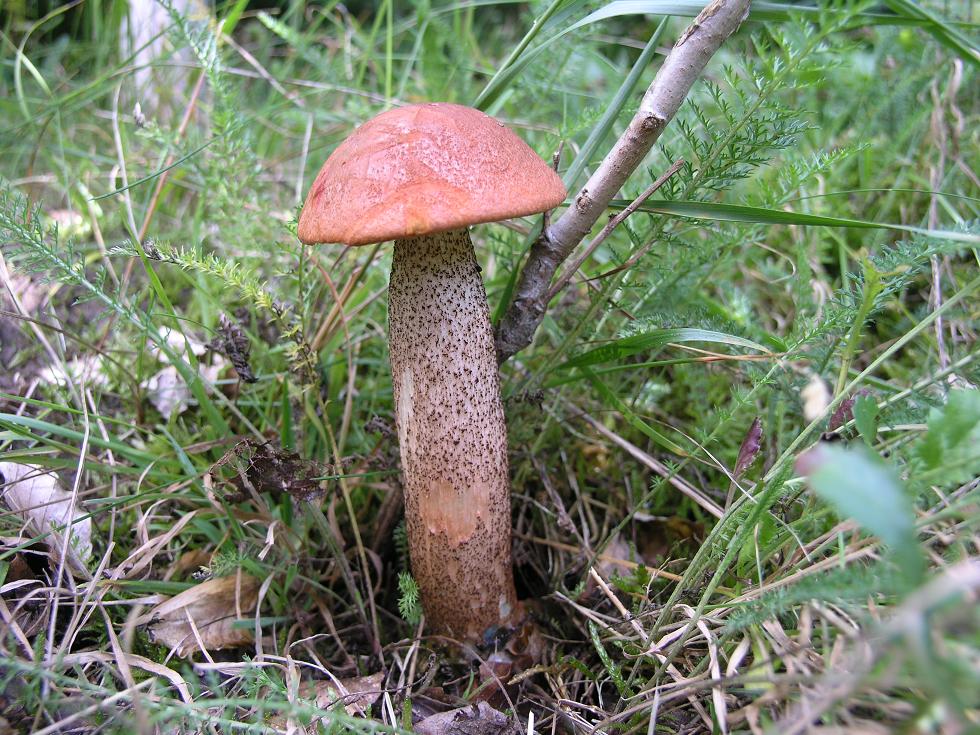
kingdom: Fungi
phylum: Basidiomycota
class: Agaricomycetes
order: Boletales
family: Boletaceae
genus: Leccinum
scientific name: Leccinum aurantiacum
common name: rustrød skælrørhat
